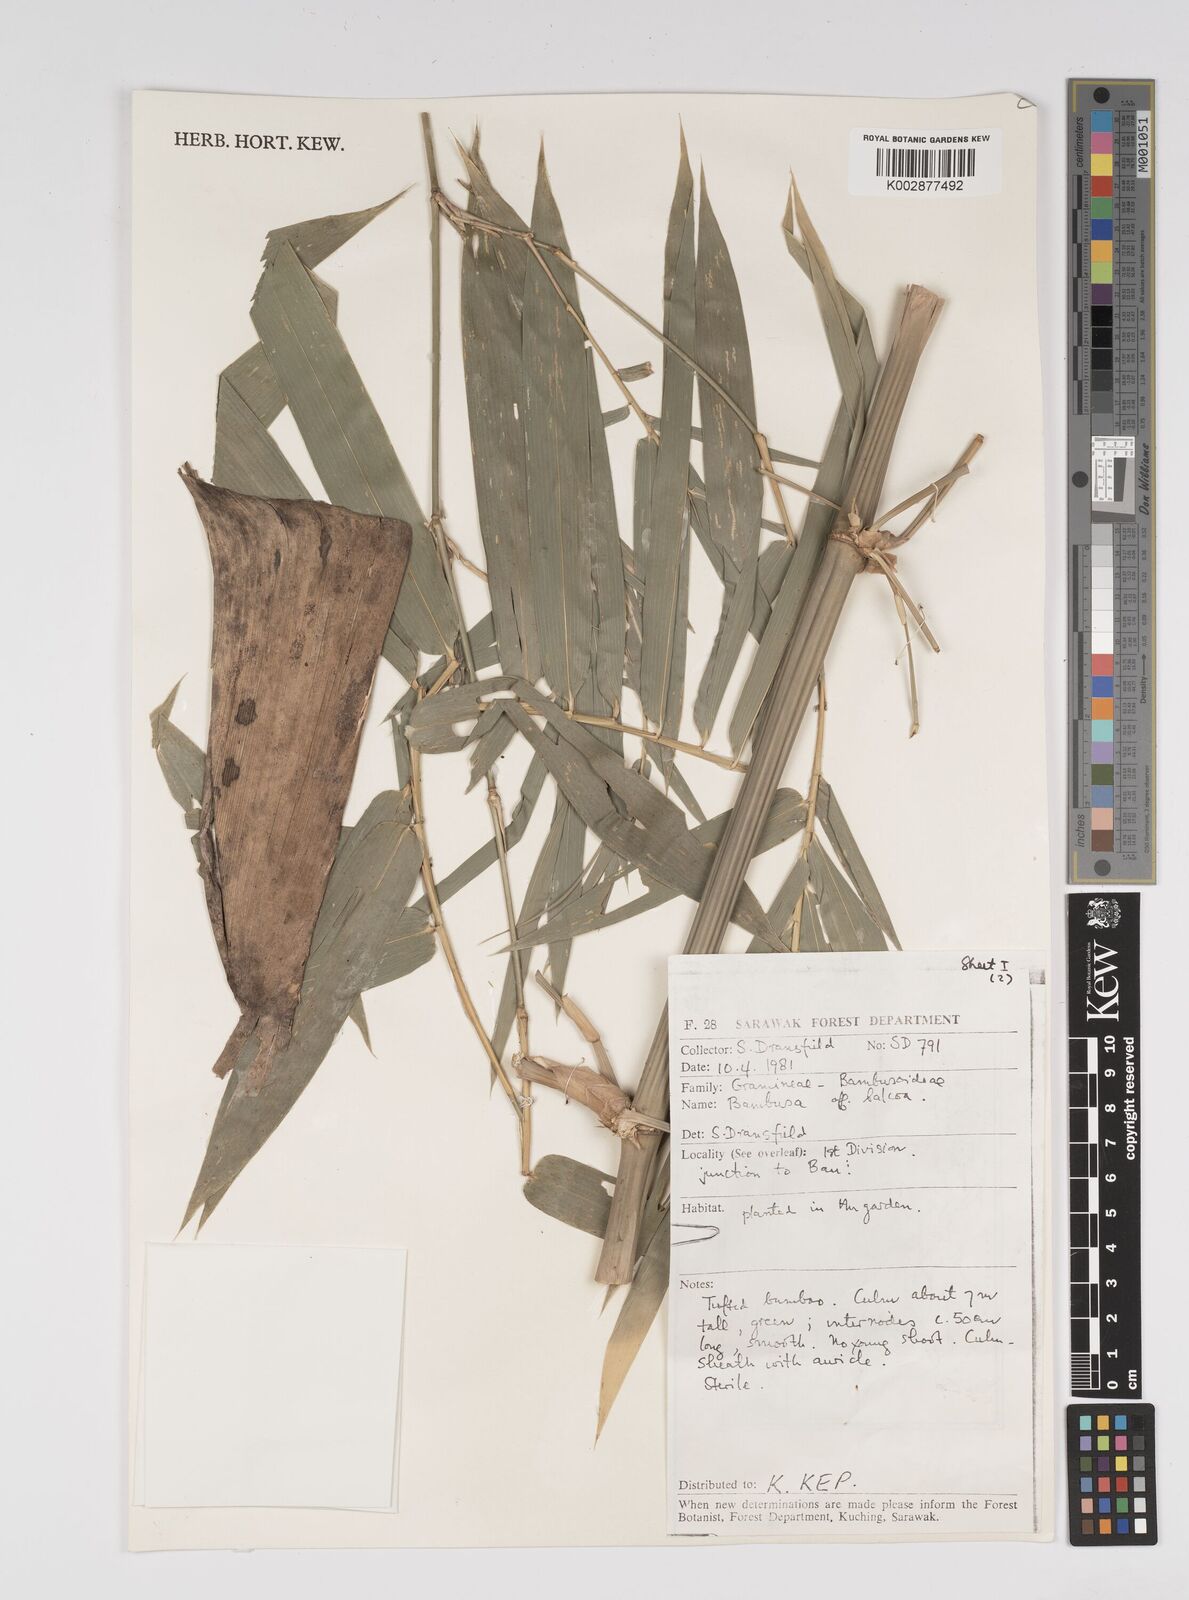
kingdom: Plantae
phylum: Tracheophyta
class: Liliopsida
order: Poales
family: Poaceae
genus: Bambusa
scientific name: Bambusa
